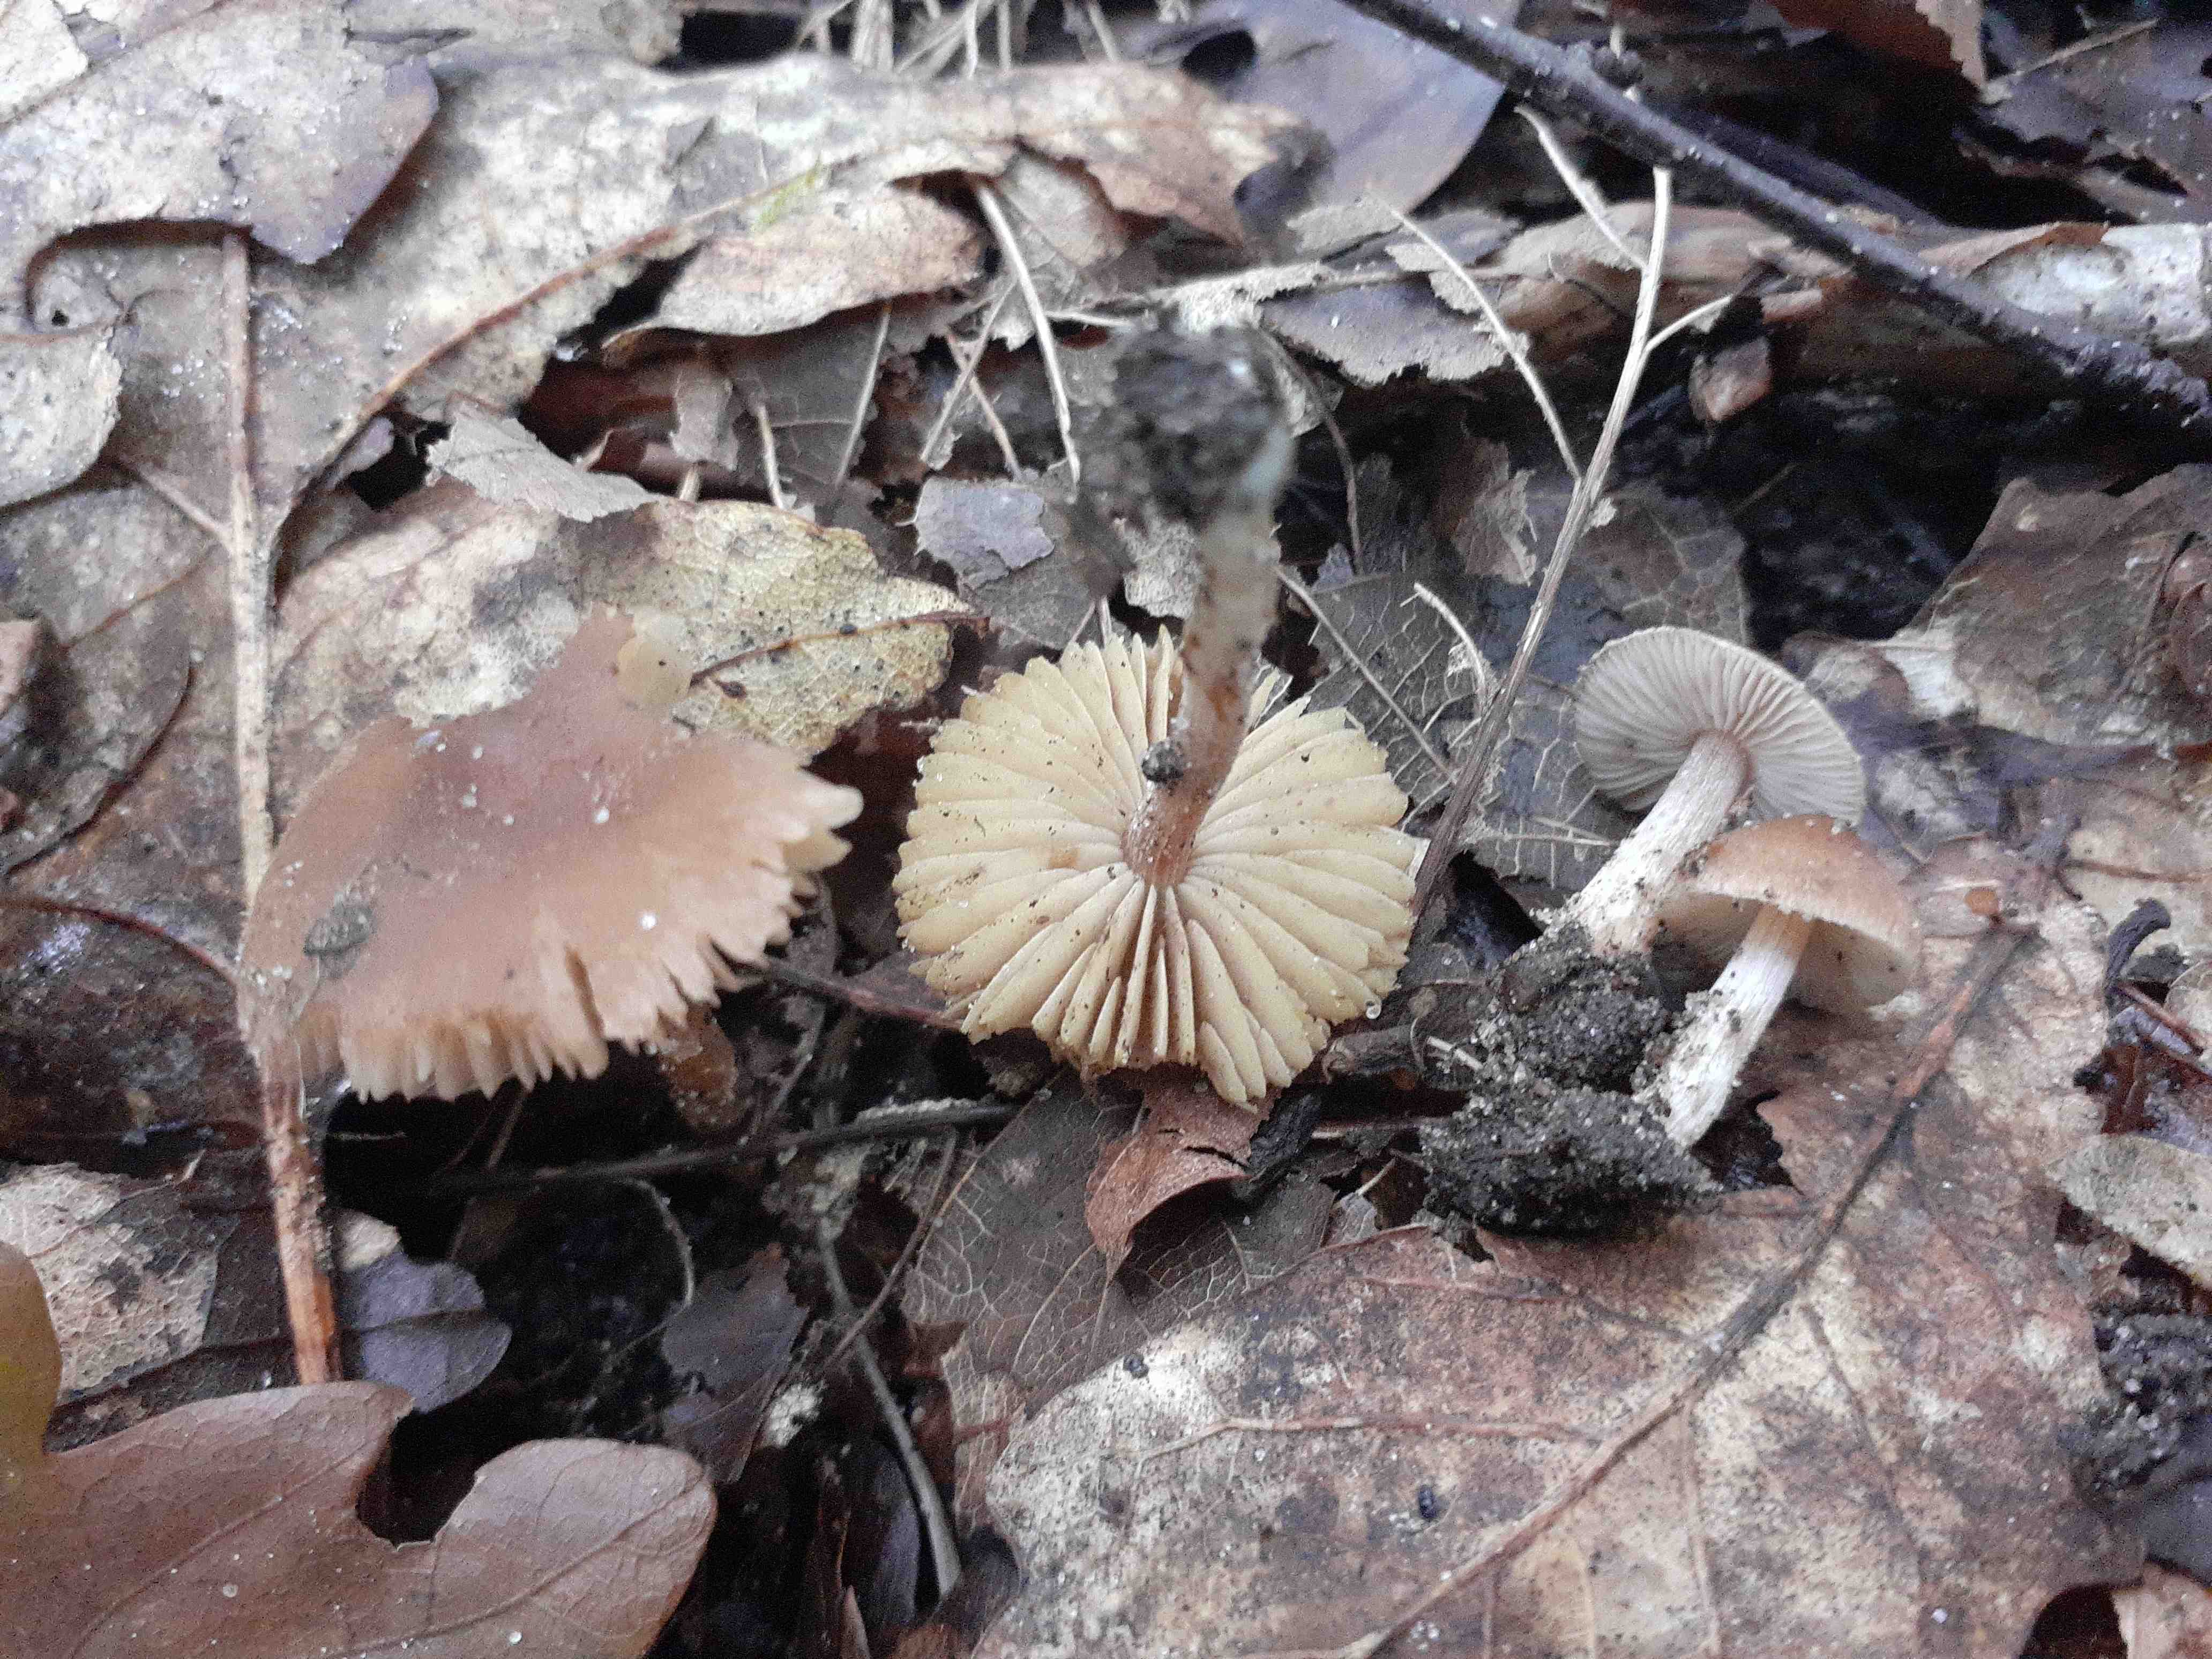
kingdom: Fungi
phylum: Basidiomycota
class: Agaricomycetes
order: Agaricales
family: Inocybaceae
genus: Inocybe
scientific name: Inocybe glabripes
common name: småsporet trævlhat
